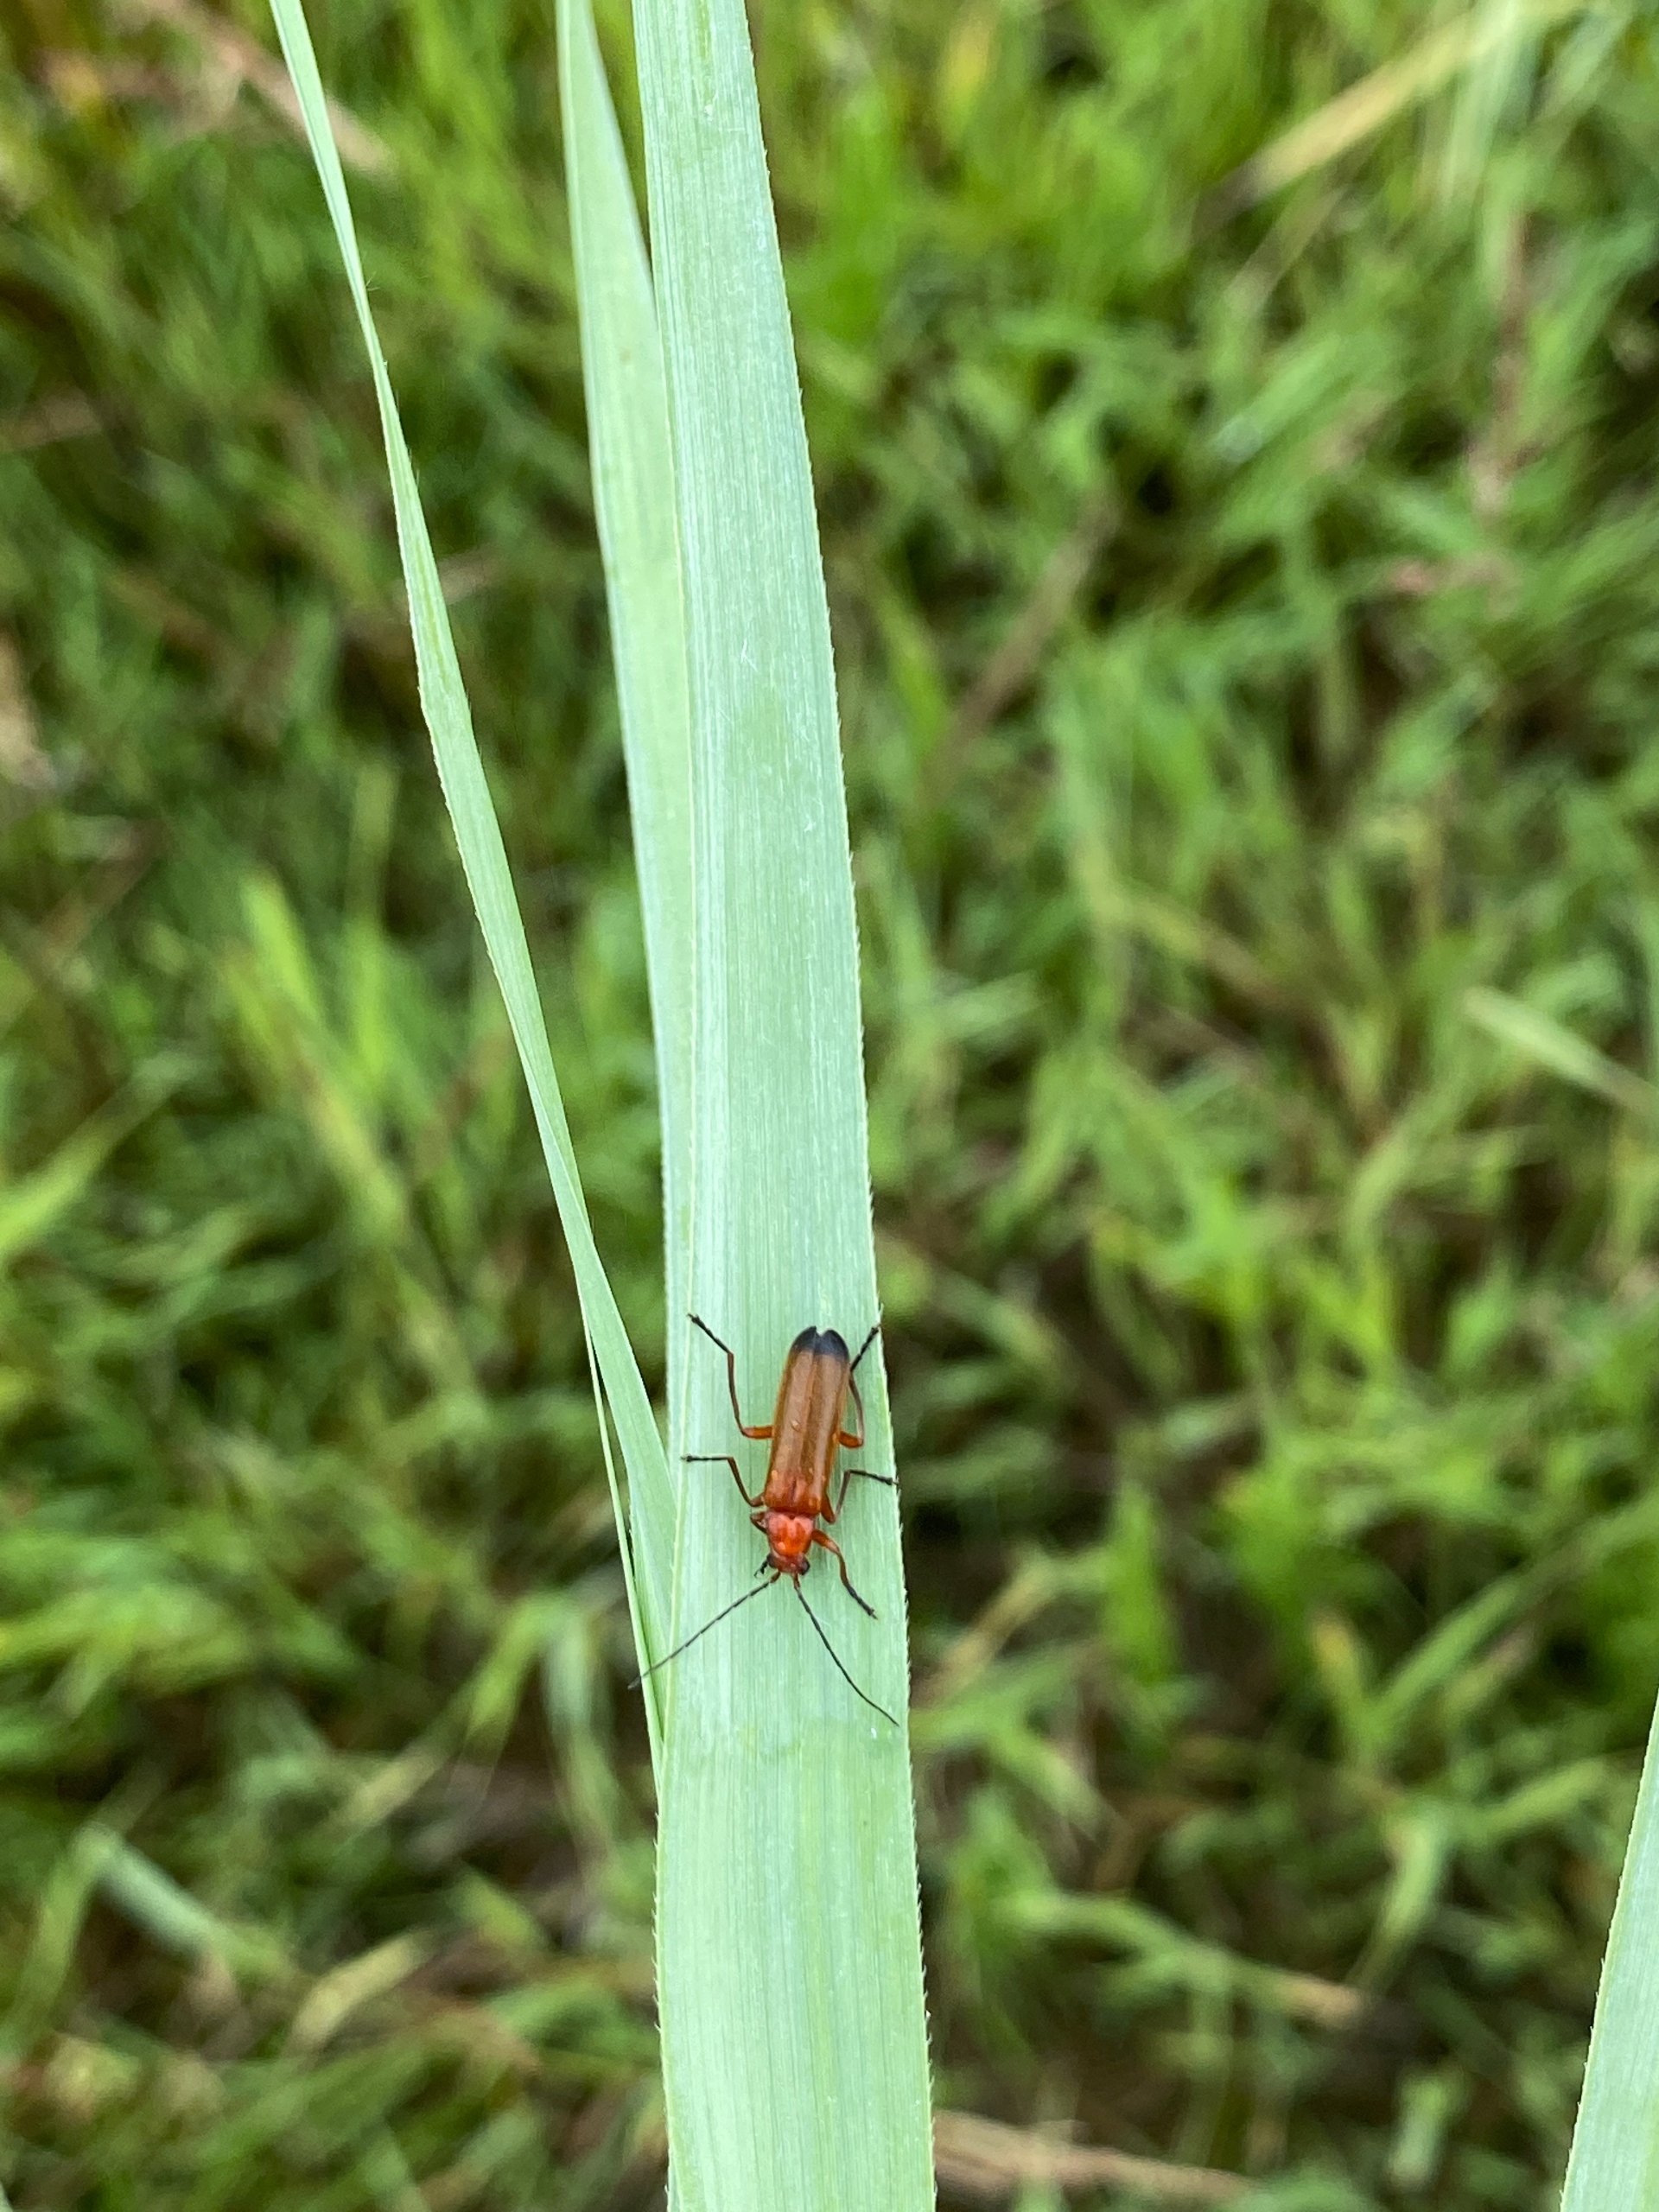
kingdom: Animalia
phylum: Arthropoda
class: Insecta
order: Coleoptera
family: Cantharidae
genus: Rhagonycha
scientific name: Rhagonycha fulva
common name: Præstebille
